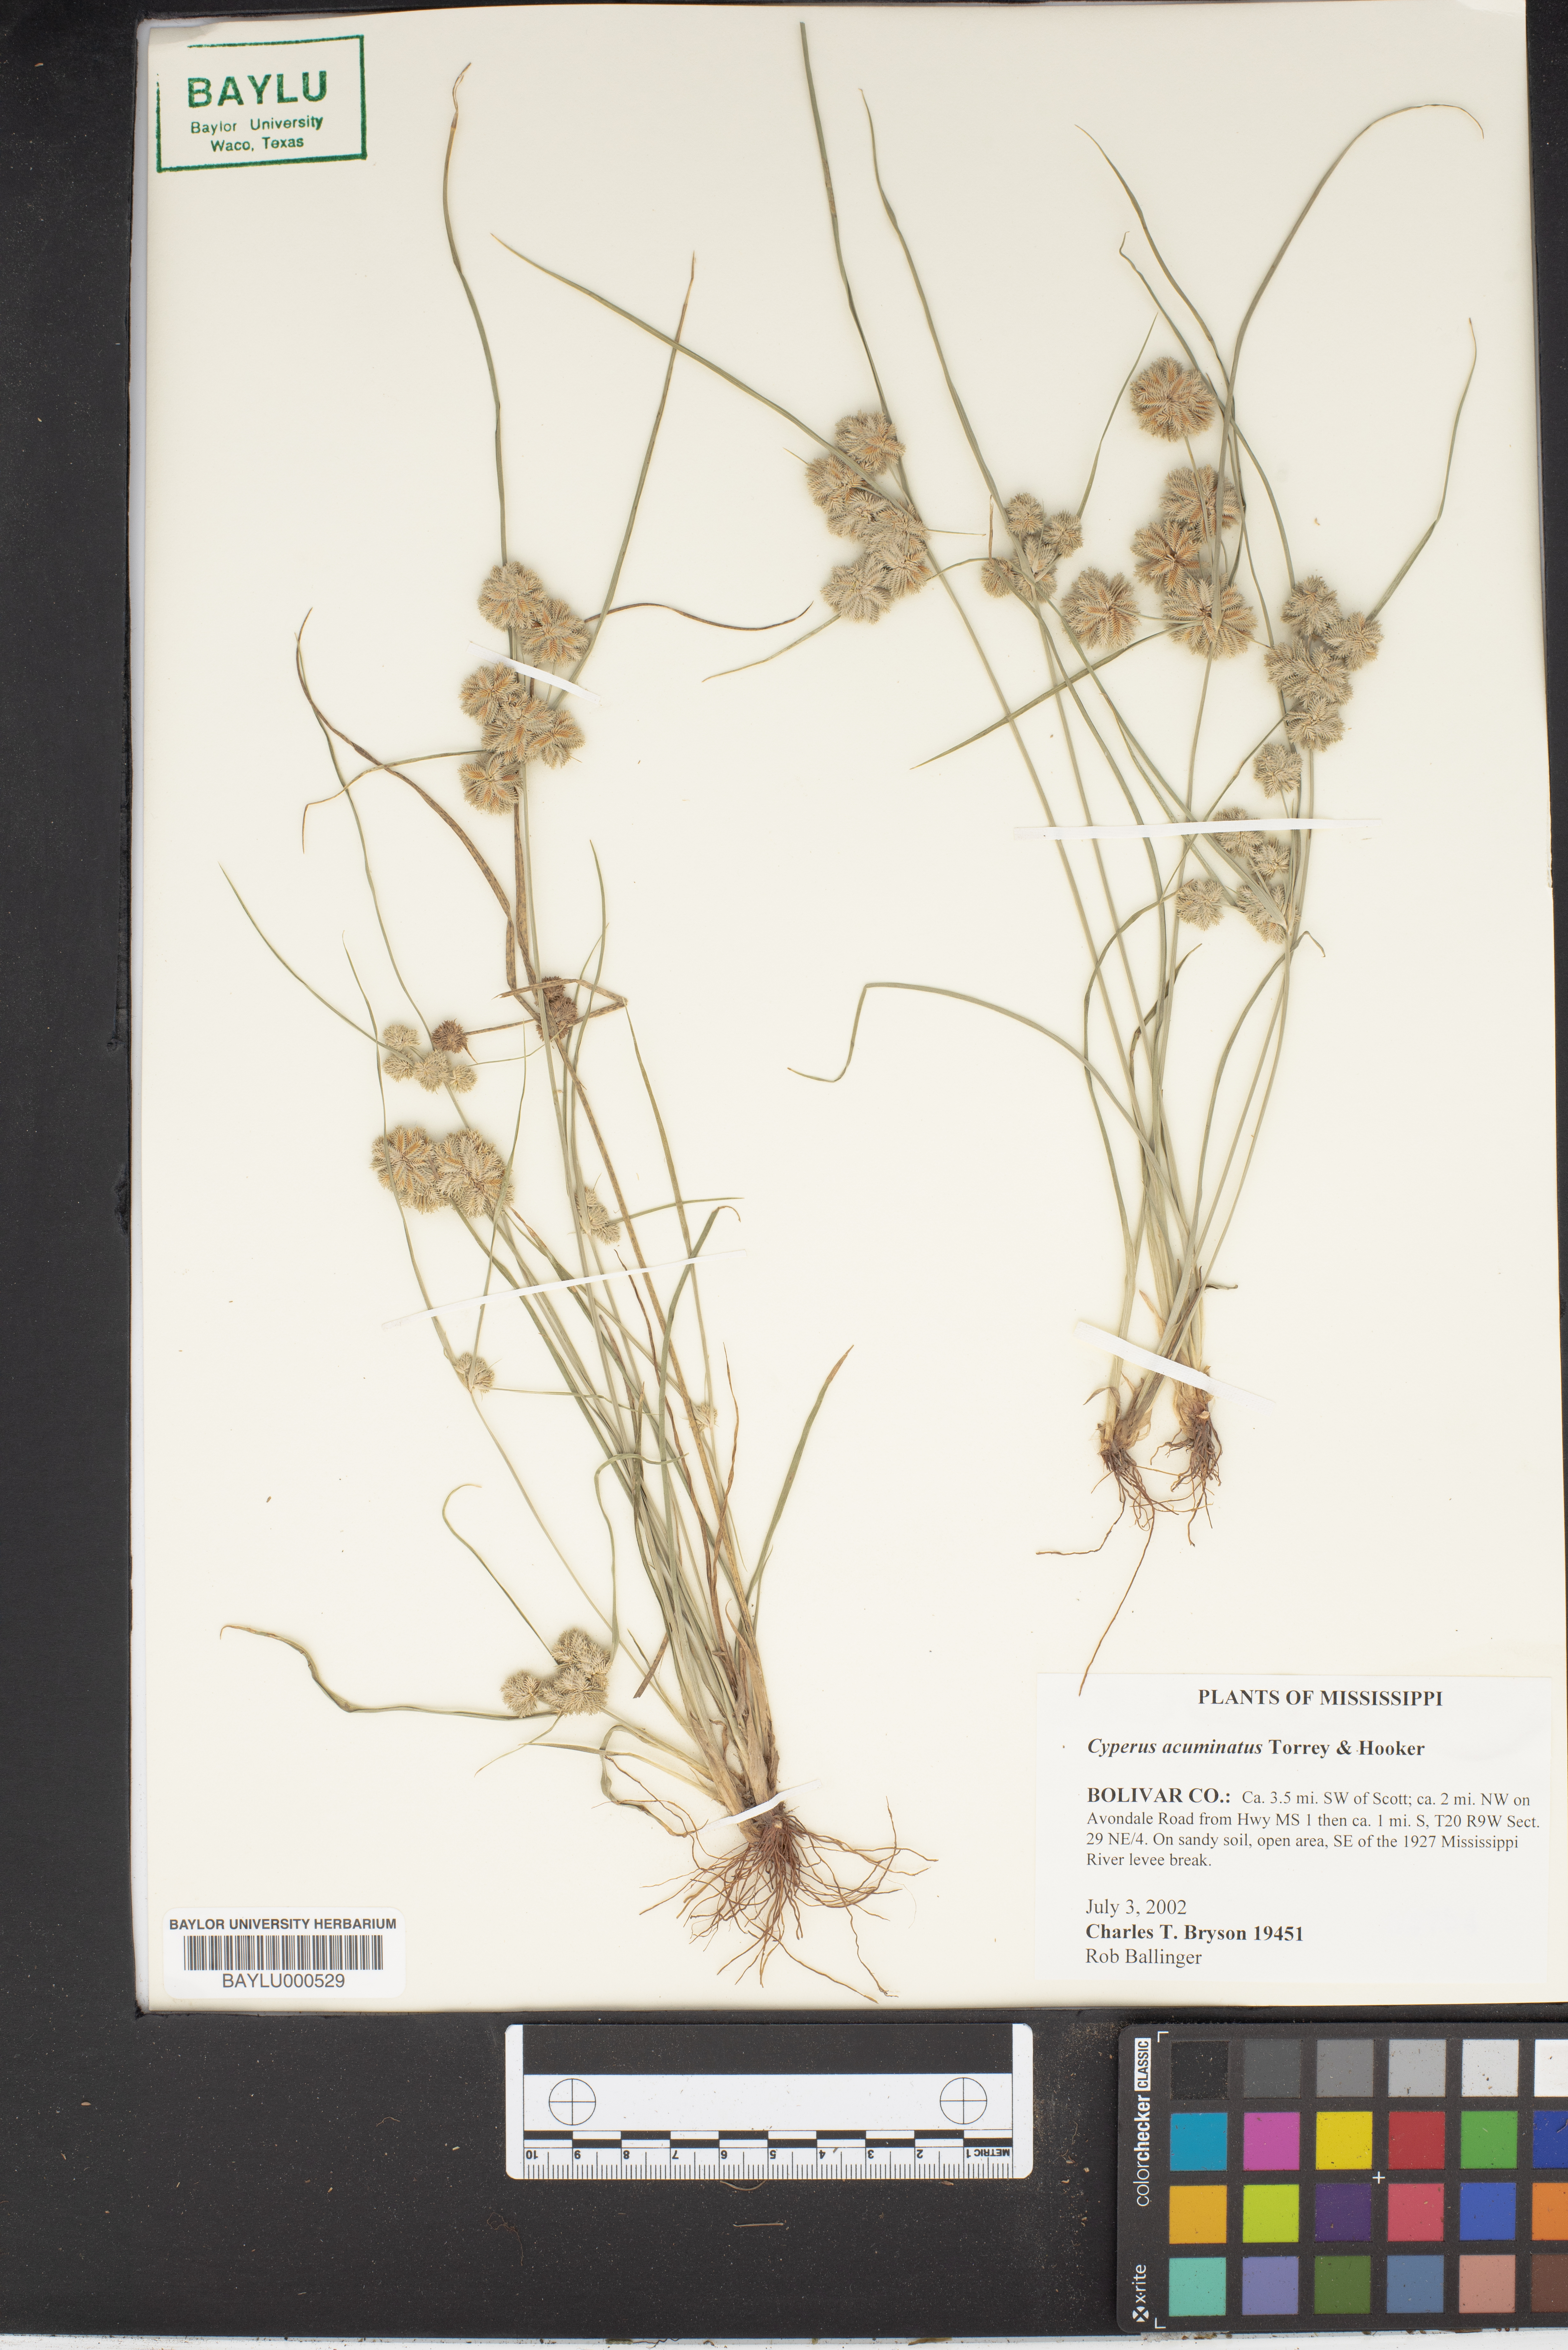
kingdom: Plantae
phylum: Tracheophyta
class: Liliopsida
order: Poales
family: Cyperaceae
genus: Cyperus
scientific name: Cyperus acuminatus
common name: Short-pointed cyperus
